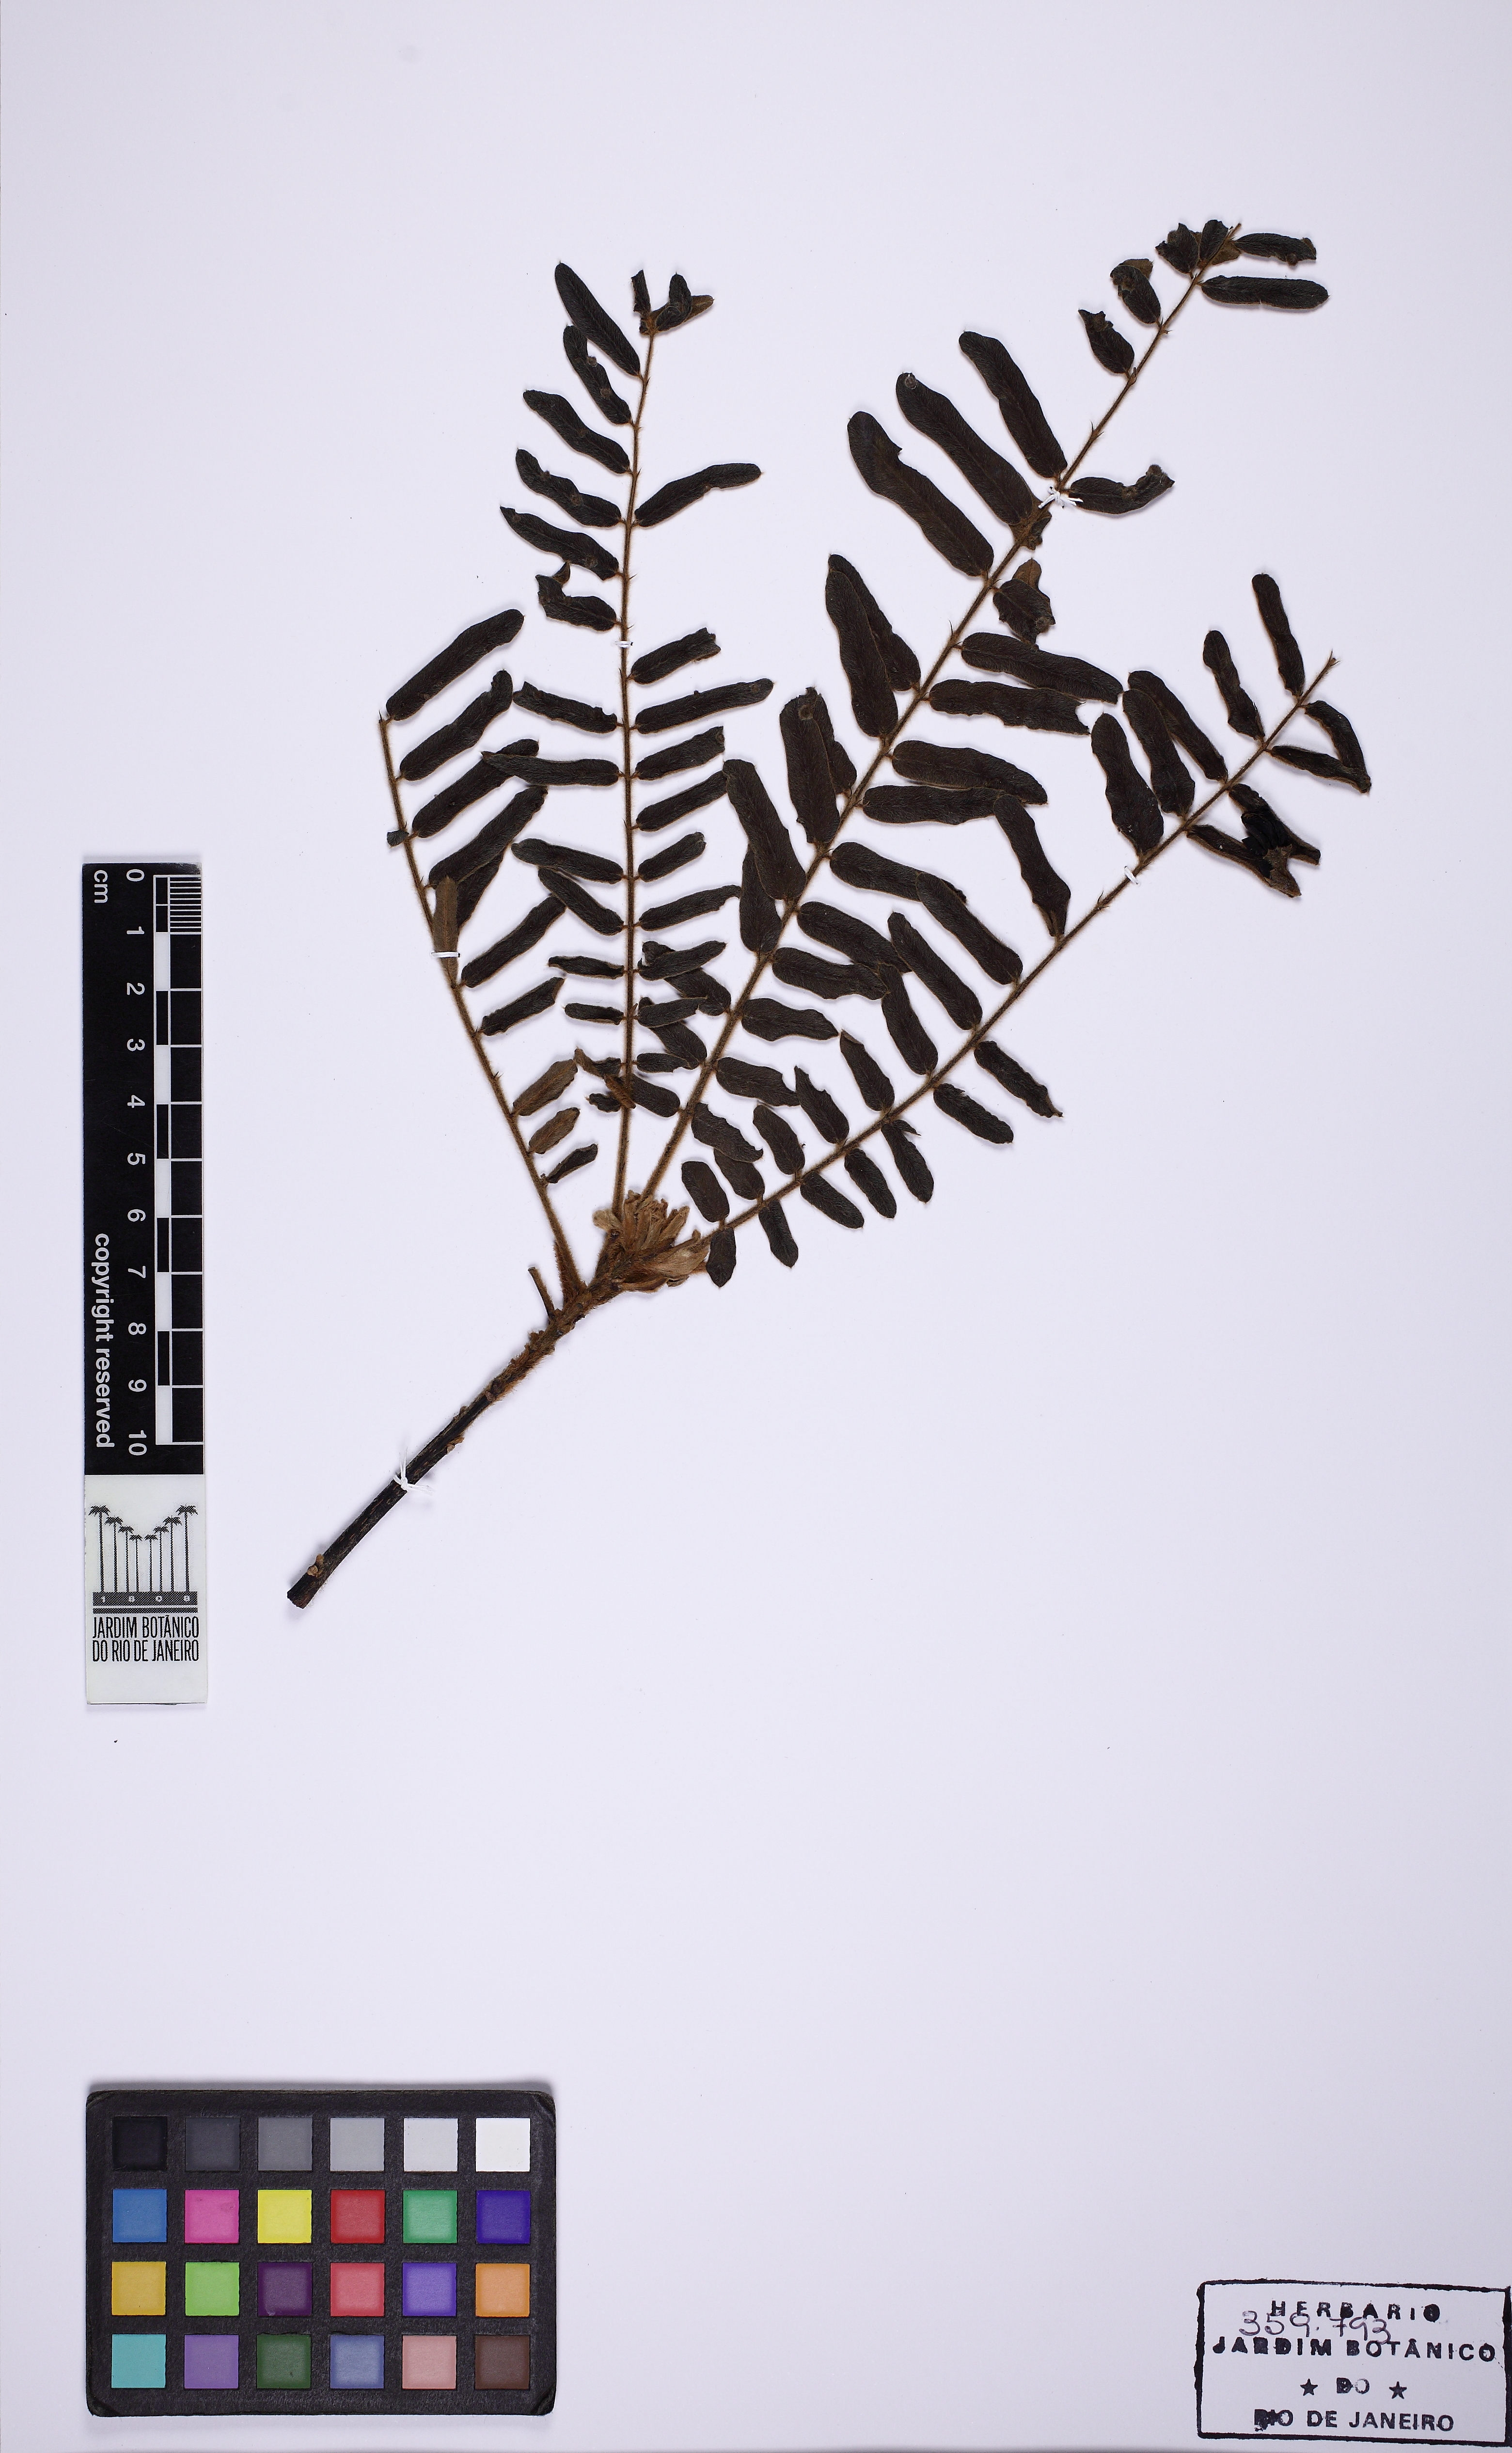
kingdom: Plantae
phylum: Tracheophyta
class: Magnoliopsida
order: Fabales
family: Fabaceae
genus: Hymenolobium
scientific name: Hymenolobium heringeranum
